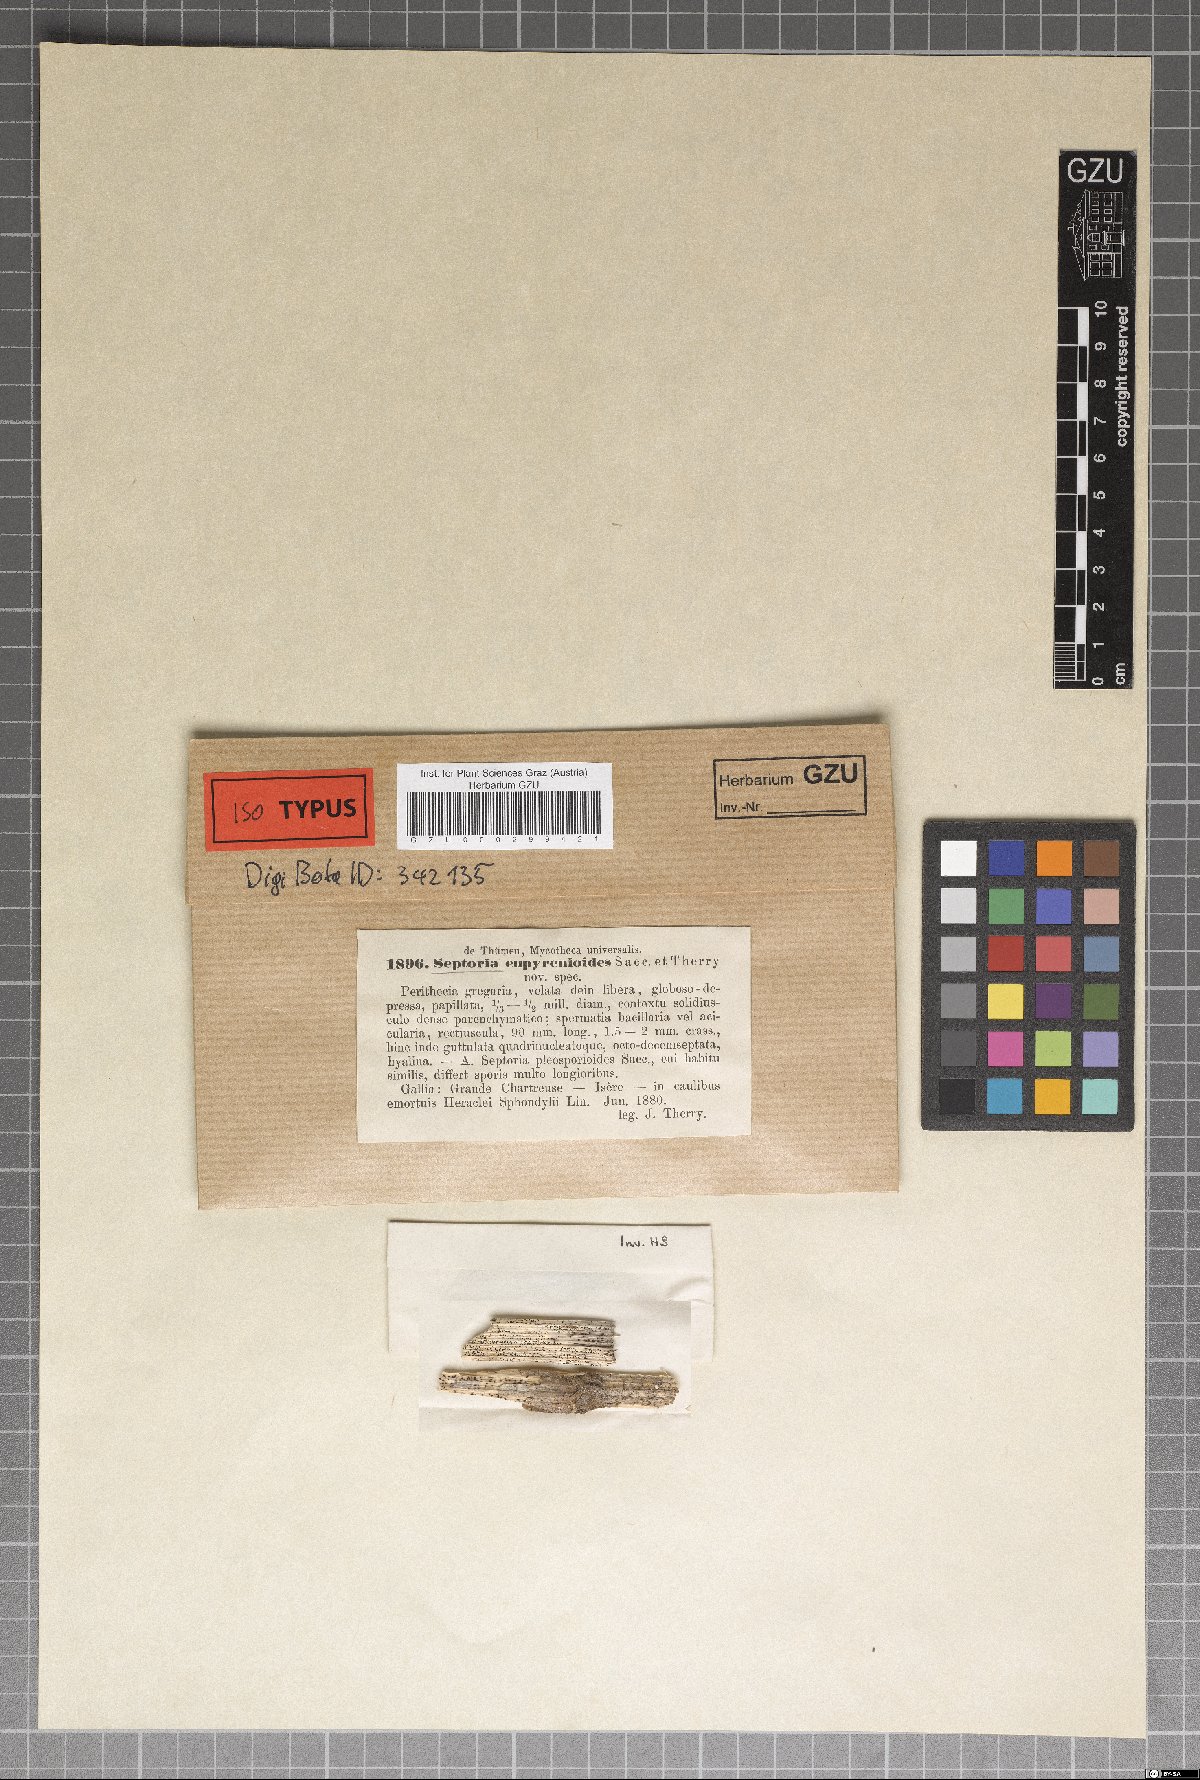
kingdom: Fungi
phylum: Ascomycota
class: Dothideomycetes
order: Mycosphaerellales
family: Mycosphaerellaceae
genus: Septoria
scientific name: Septoria
